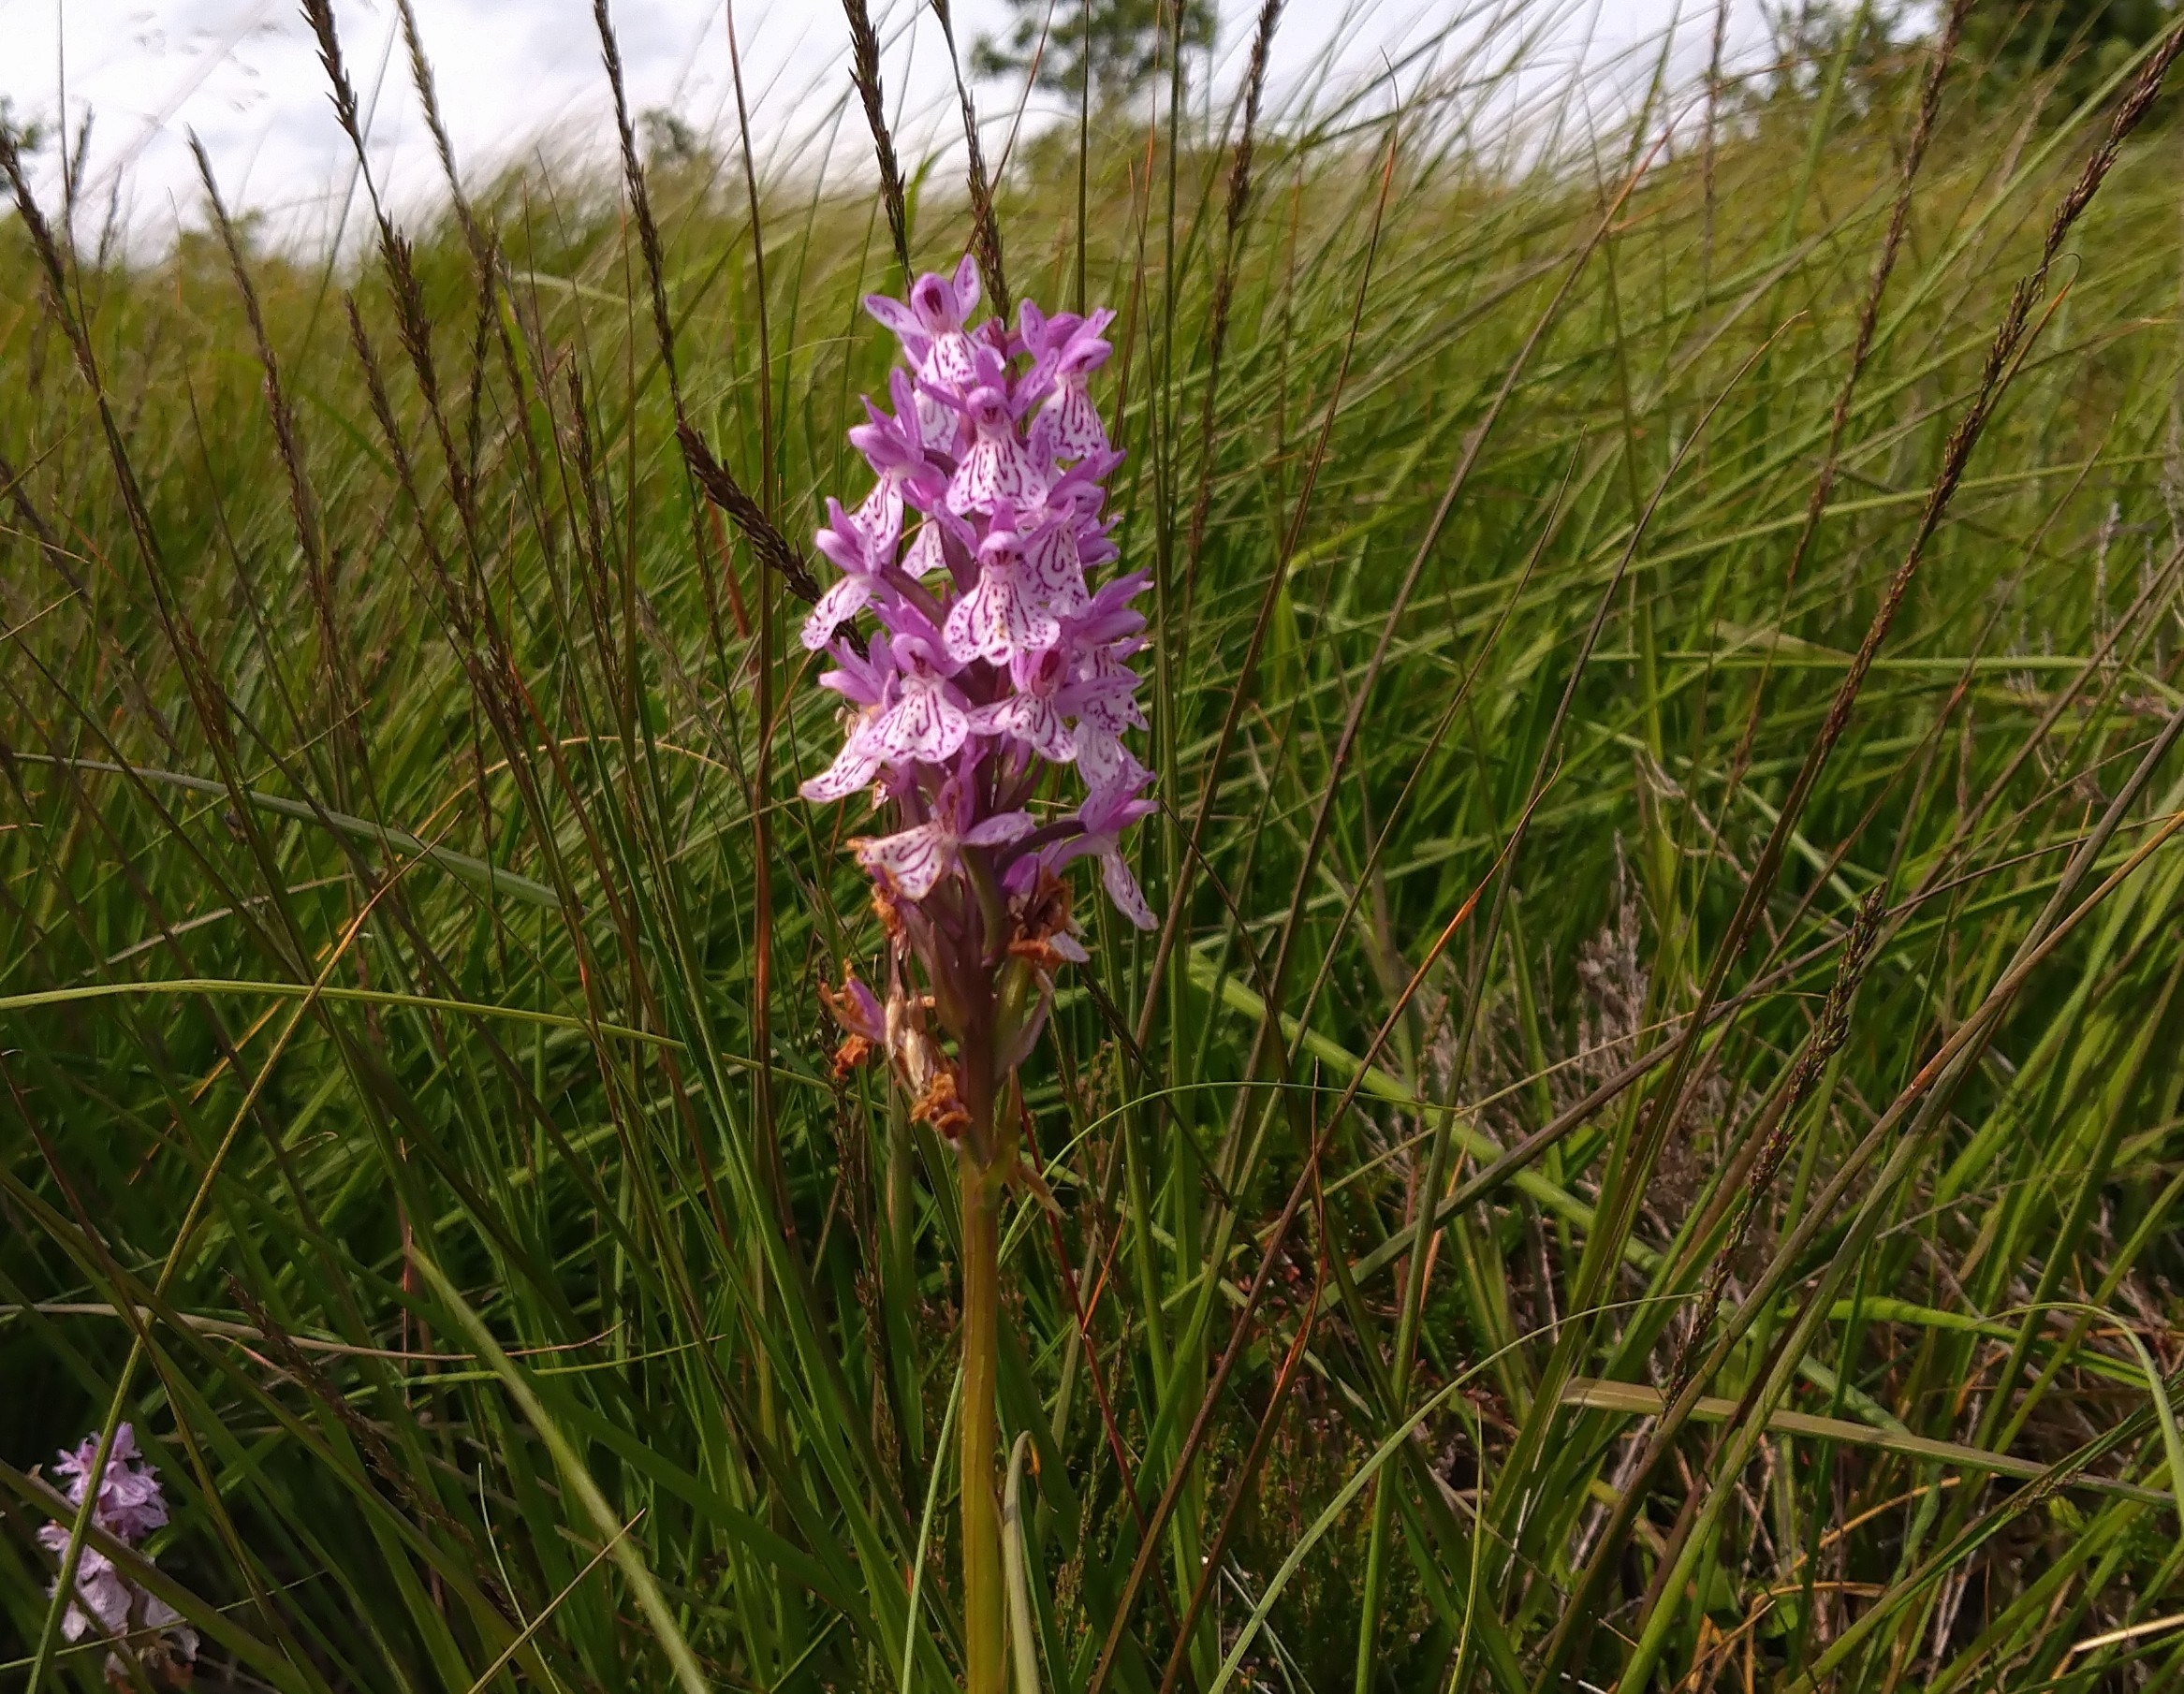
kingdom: Plantae
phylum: Tracheophyta
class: Liliopsida
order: Asparagales
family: Orchidaceae
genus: Dactylorhiza
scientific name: Dactylorhiza maculata
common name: Plettet gøgeurt
